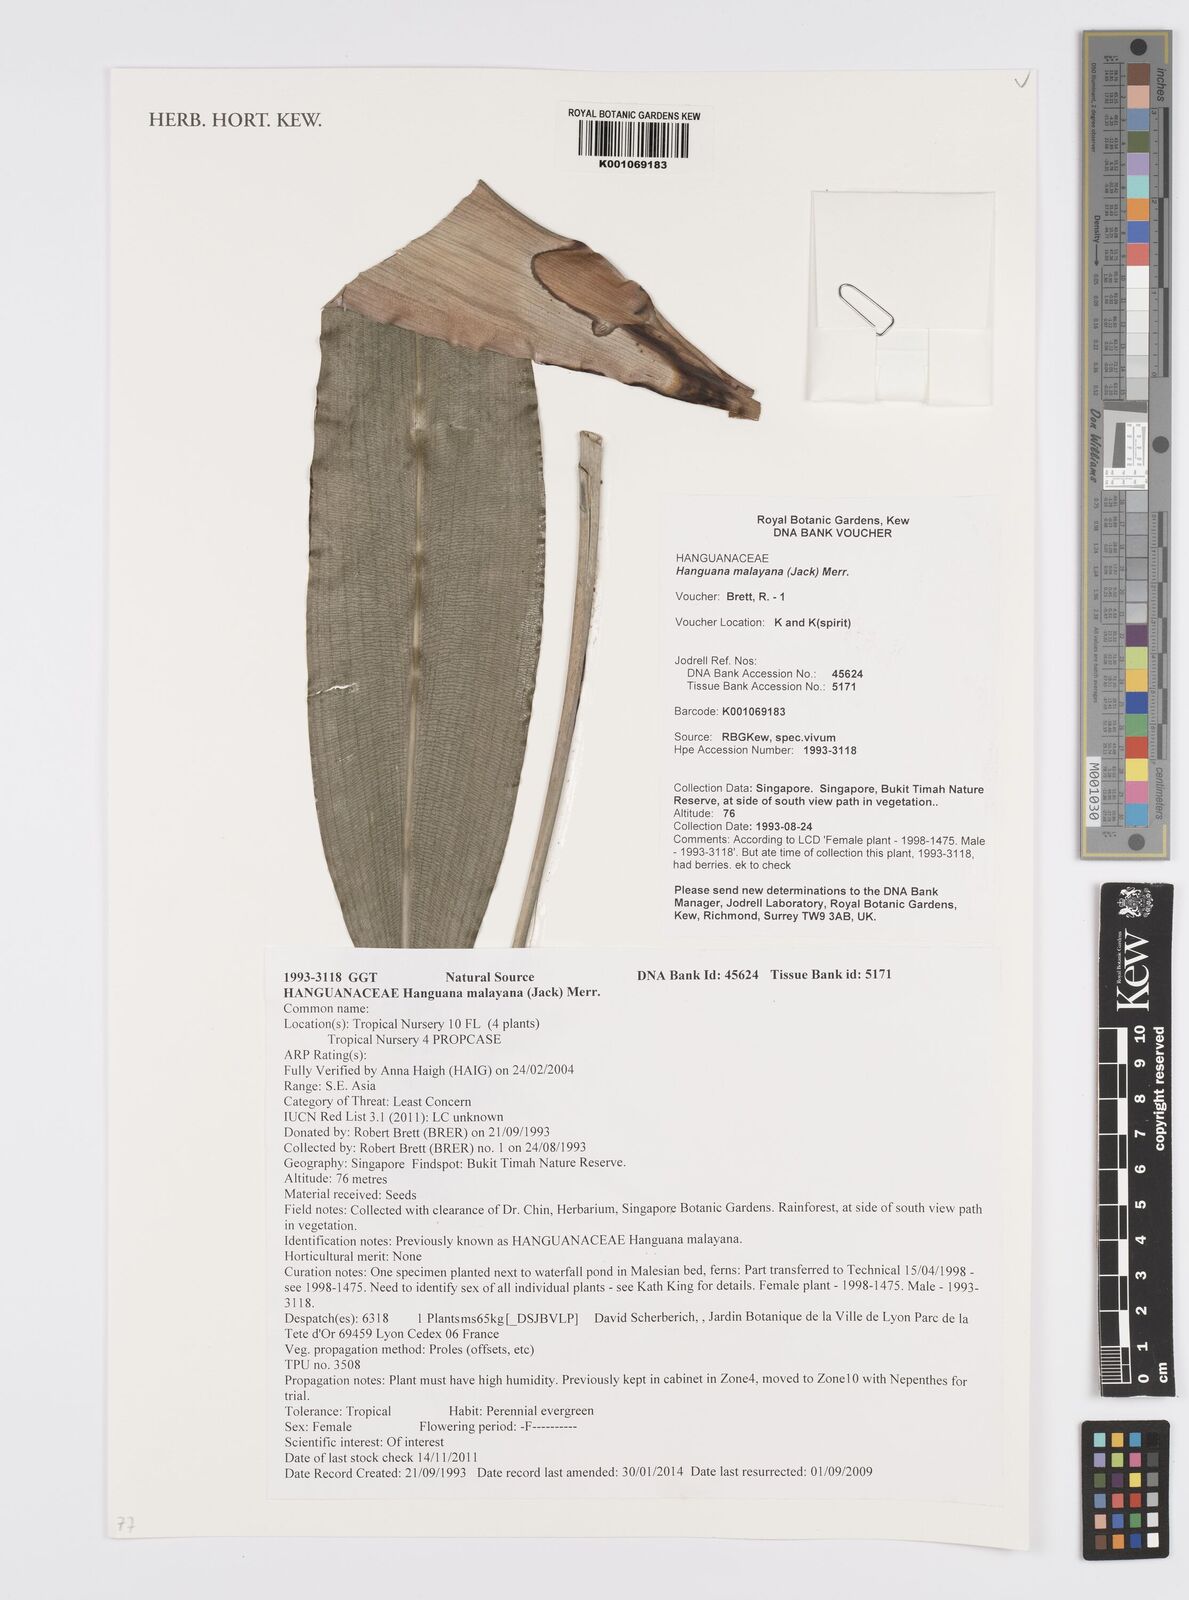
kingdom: Plantae
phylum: Tracheophyta
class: Liliopsida
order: Commelinales
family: Hanguanaceae
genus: Hanguana
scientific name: Hanguana malayana
